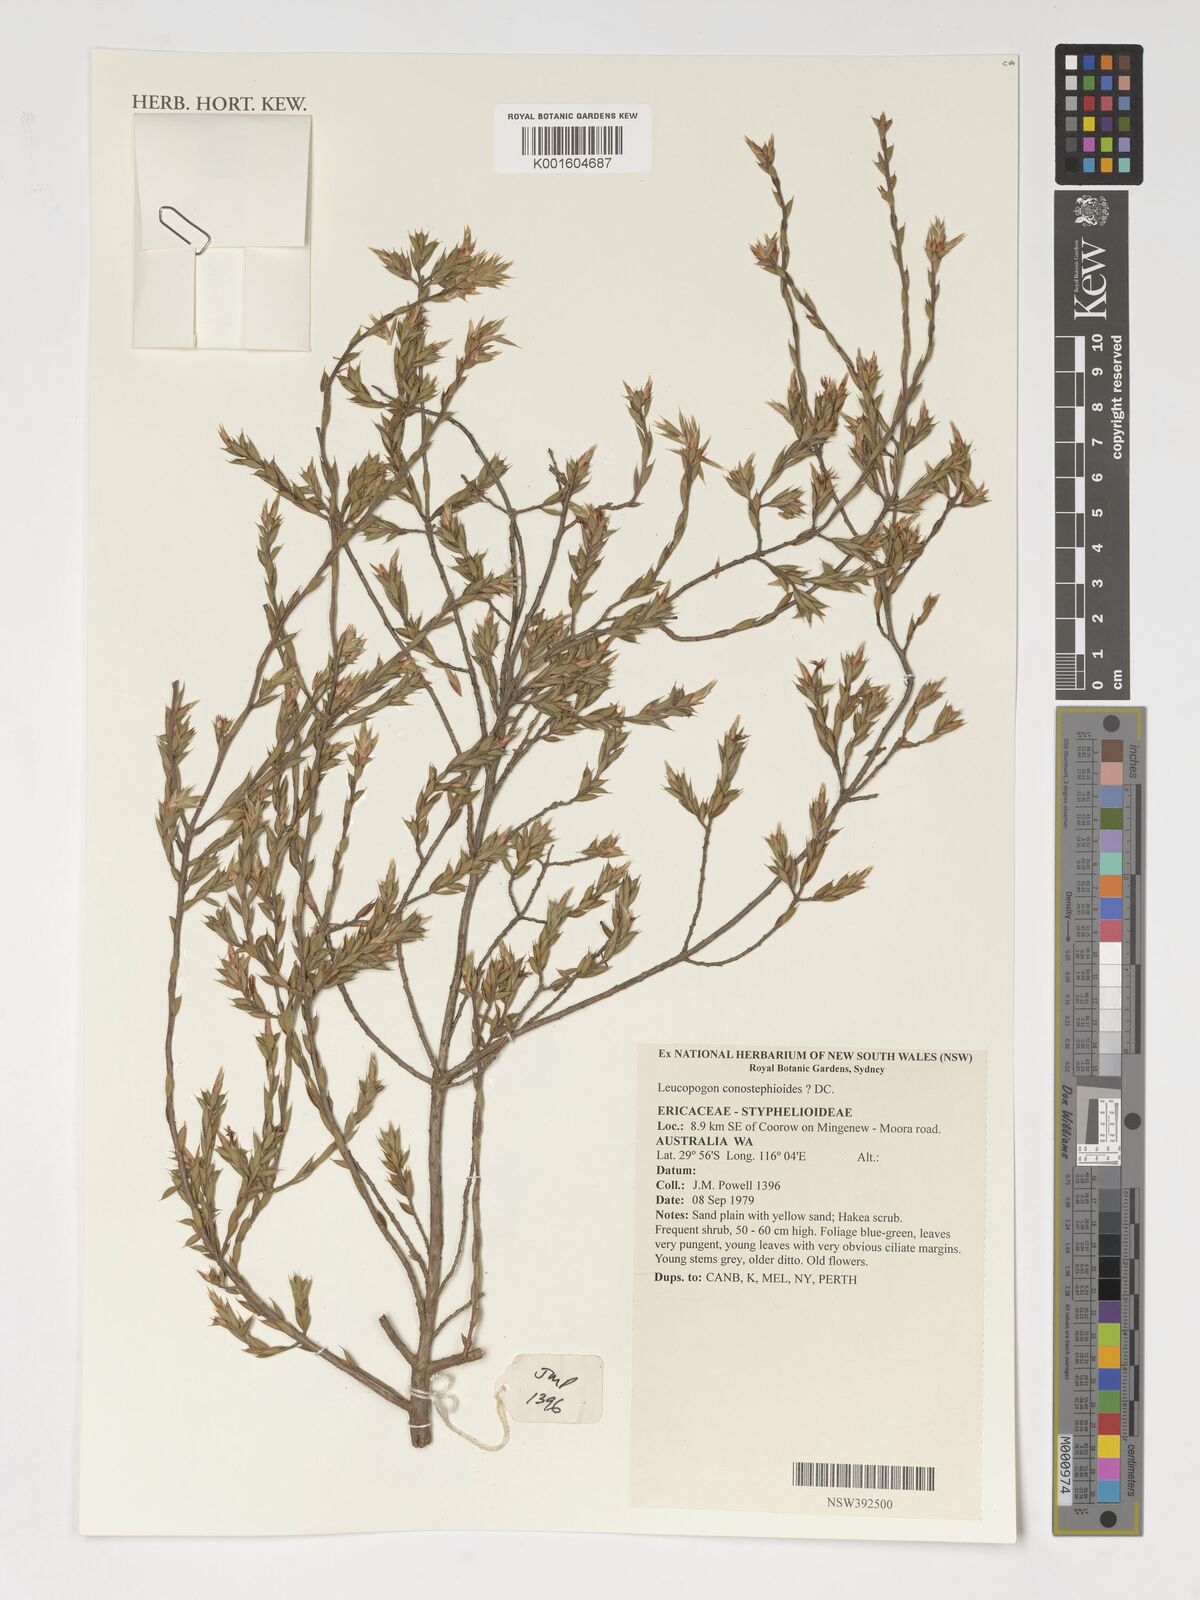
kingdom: Plantae
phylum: Tracheophyta
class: Magnoliopsida
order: Ericales
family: Ericaceae
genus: Styphelia
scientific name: Styphelia conostephoides
